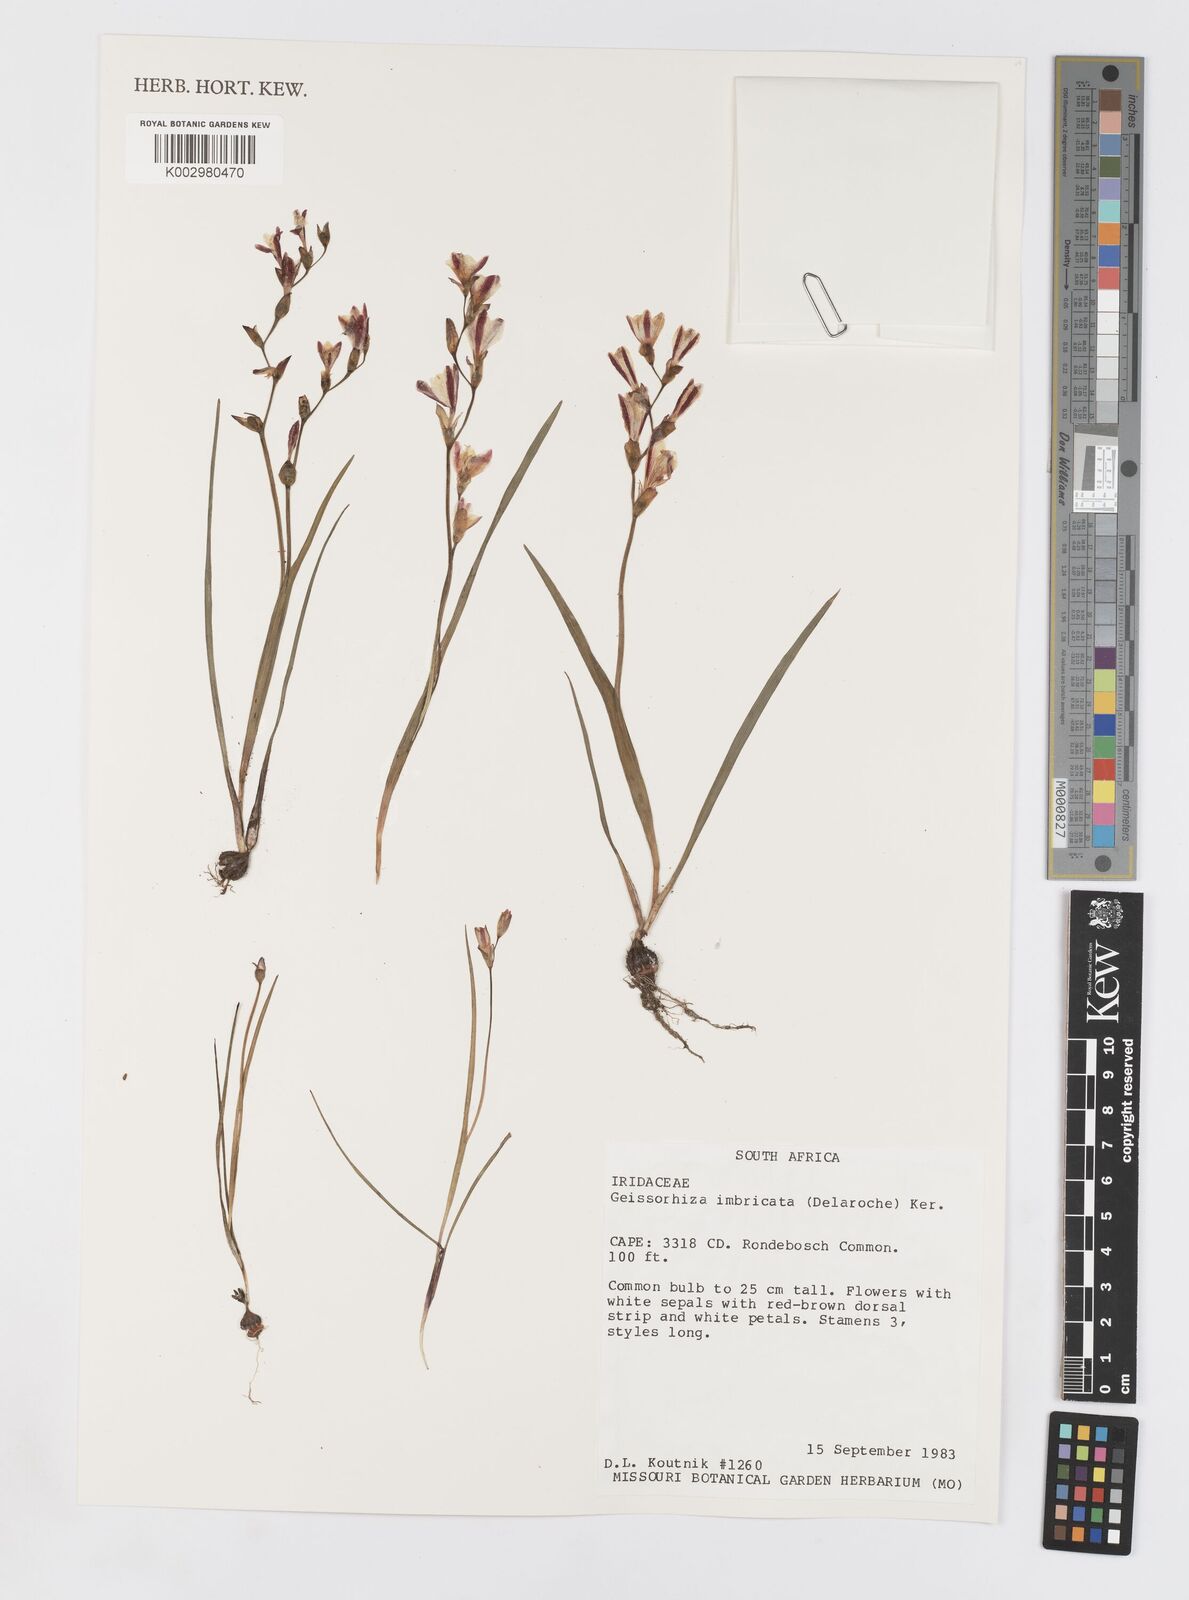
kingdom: Plantae
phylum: Tracheophyta
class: Liliopsida
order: Asparagales
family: Iridaceae
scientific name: Iridaceae
